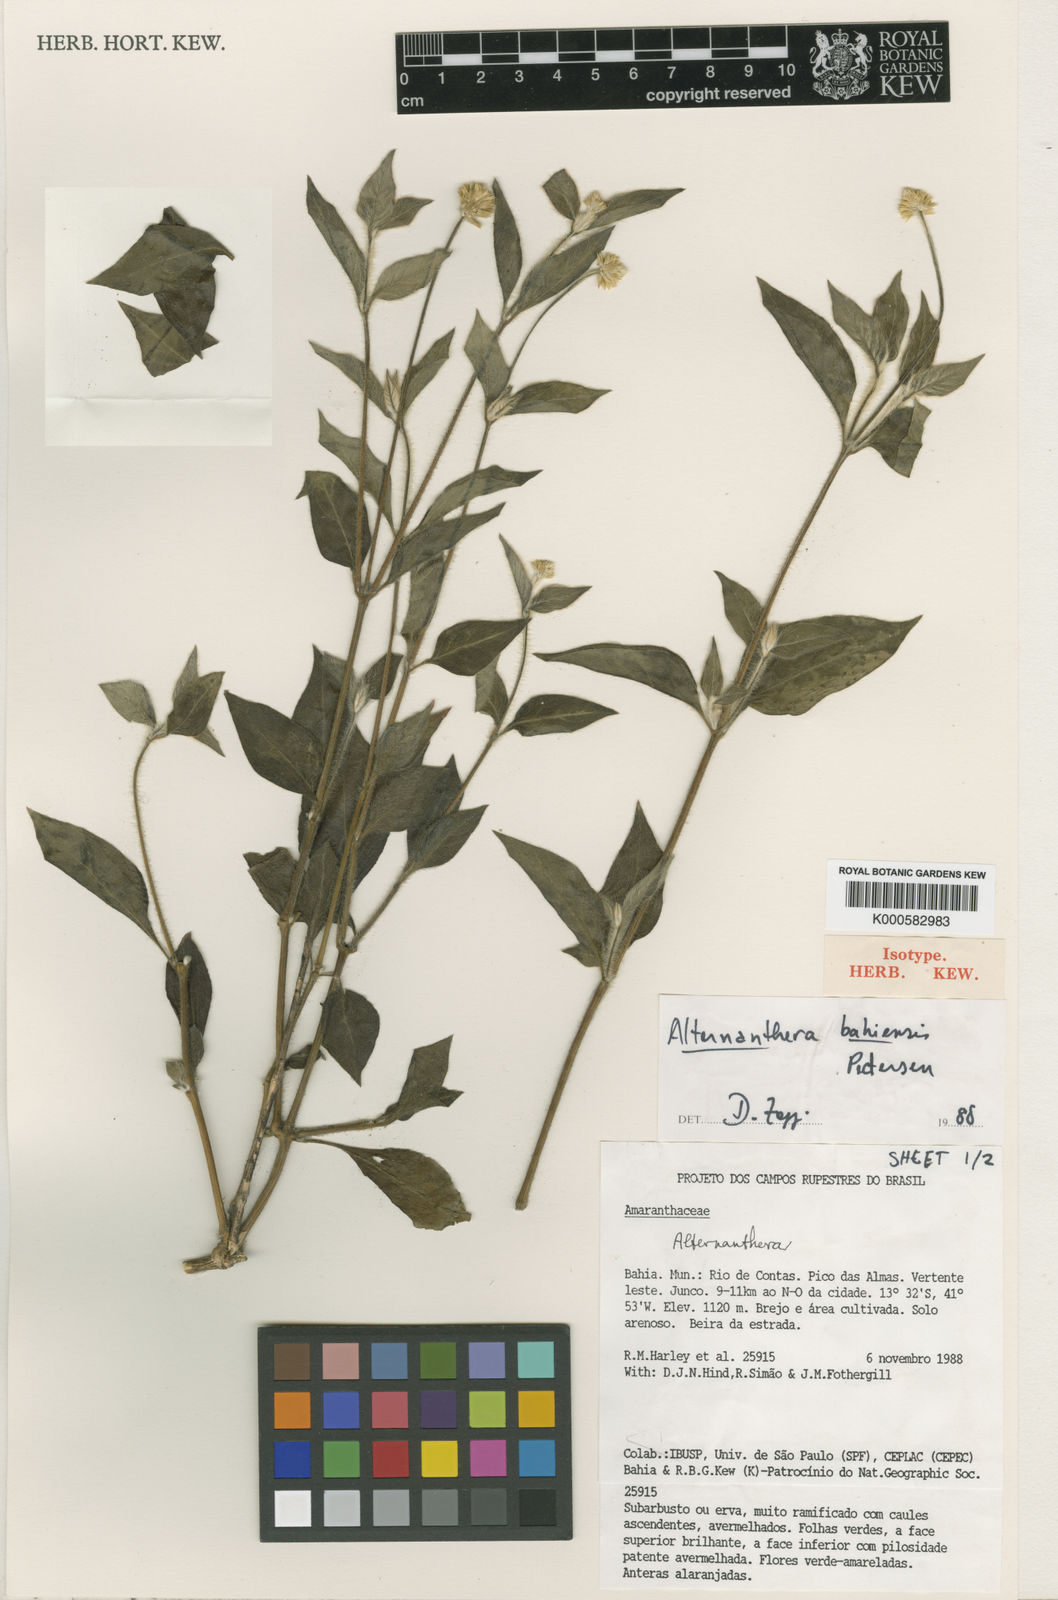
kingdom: Plantae
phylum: Tracheophyta
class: Magnoliopsida
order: Caryophyllales
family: Amaranthaceae
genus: Alternanthera
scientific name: Alternanthera bahiensis
